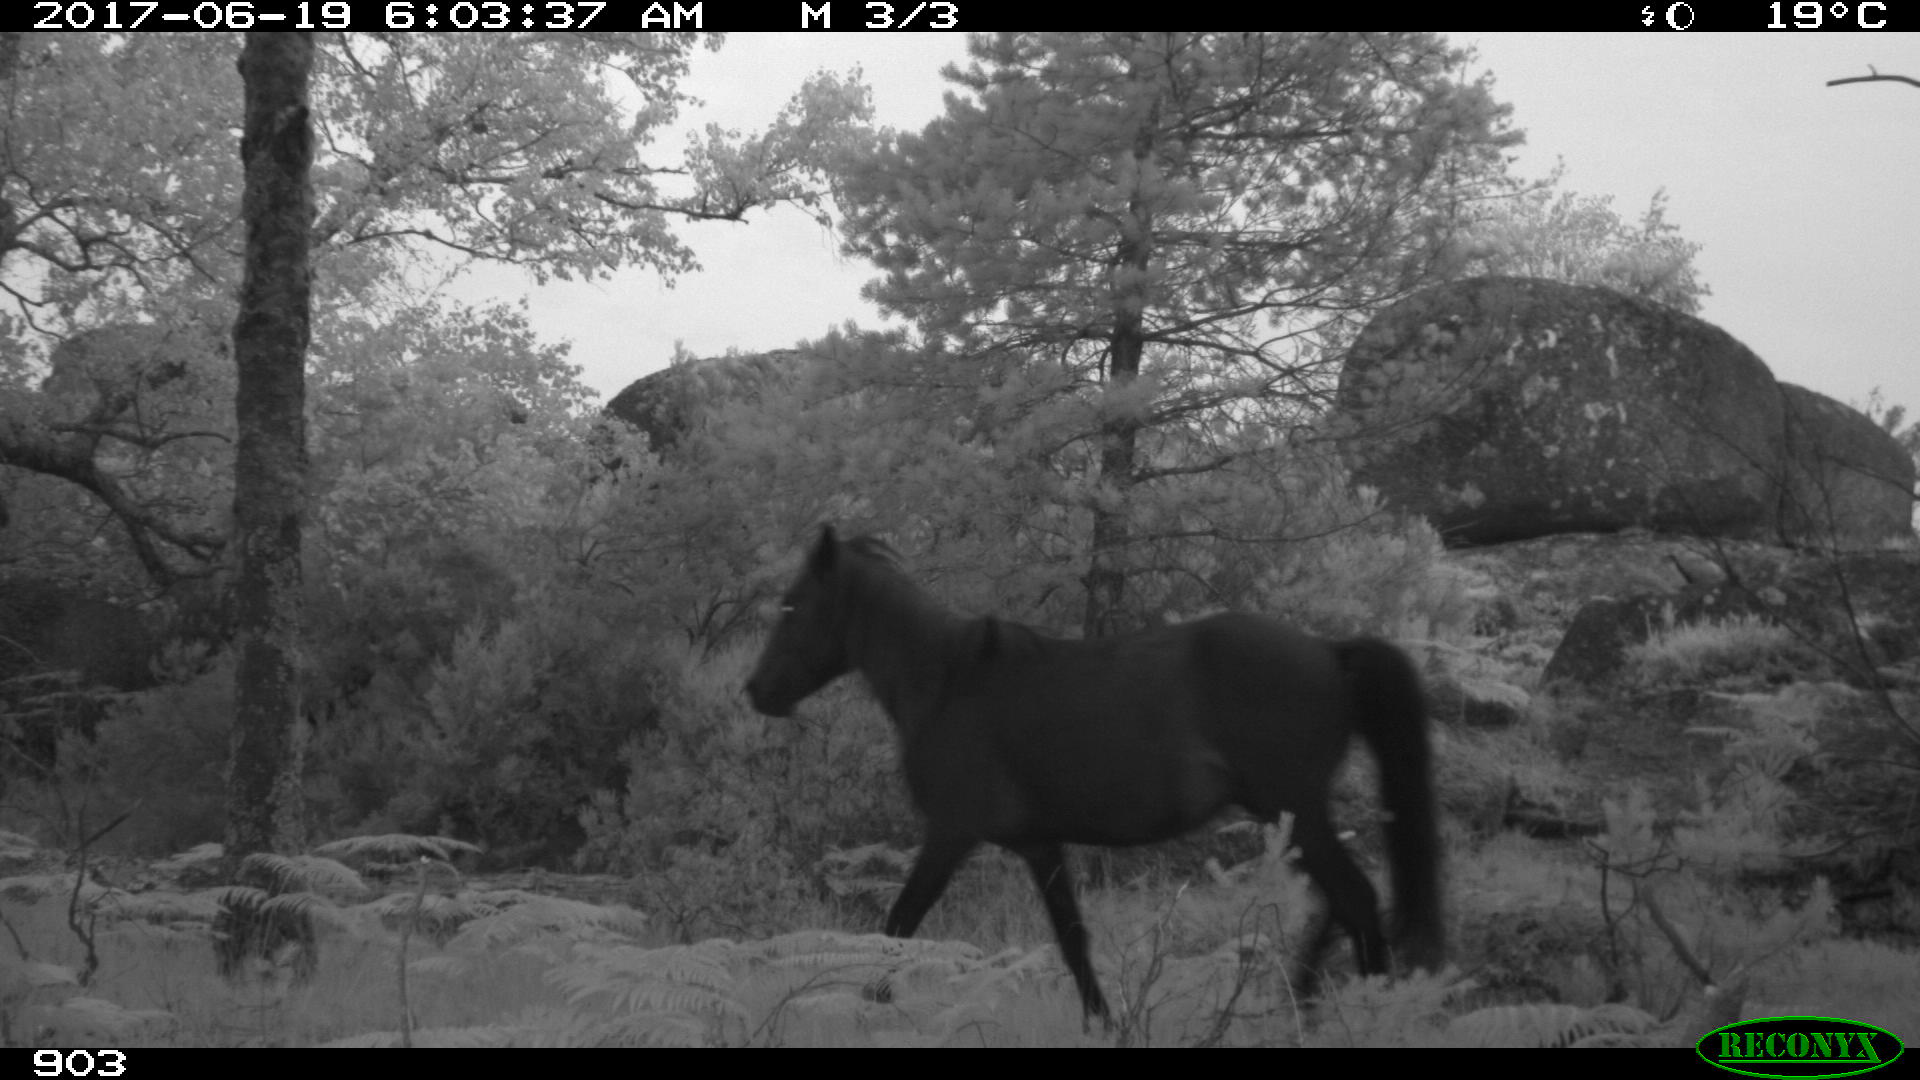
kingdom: Animalia
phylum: Chordata
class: Mammalia
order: Perissodactyla
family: Equidae
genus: Equus
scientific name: Equus caballus
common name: Horse
